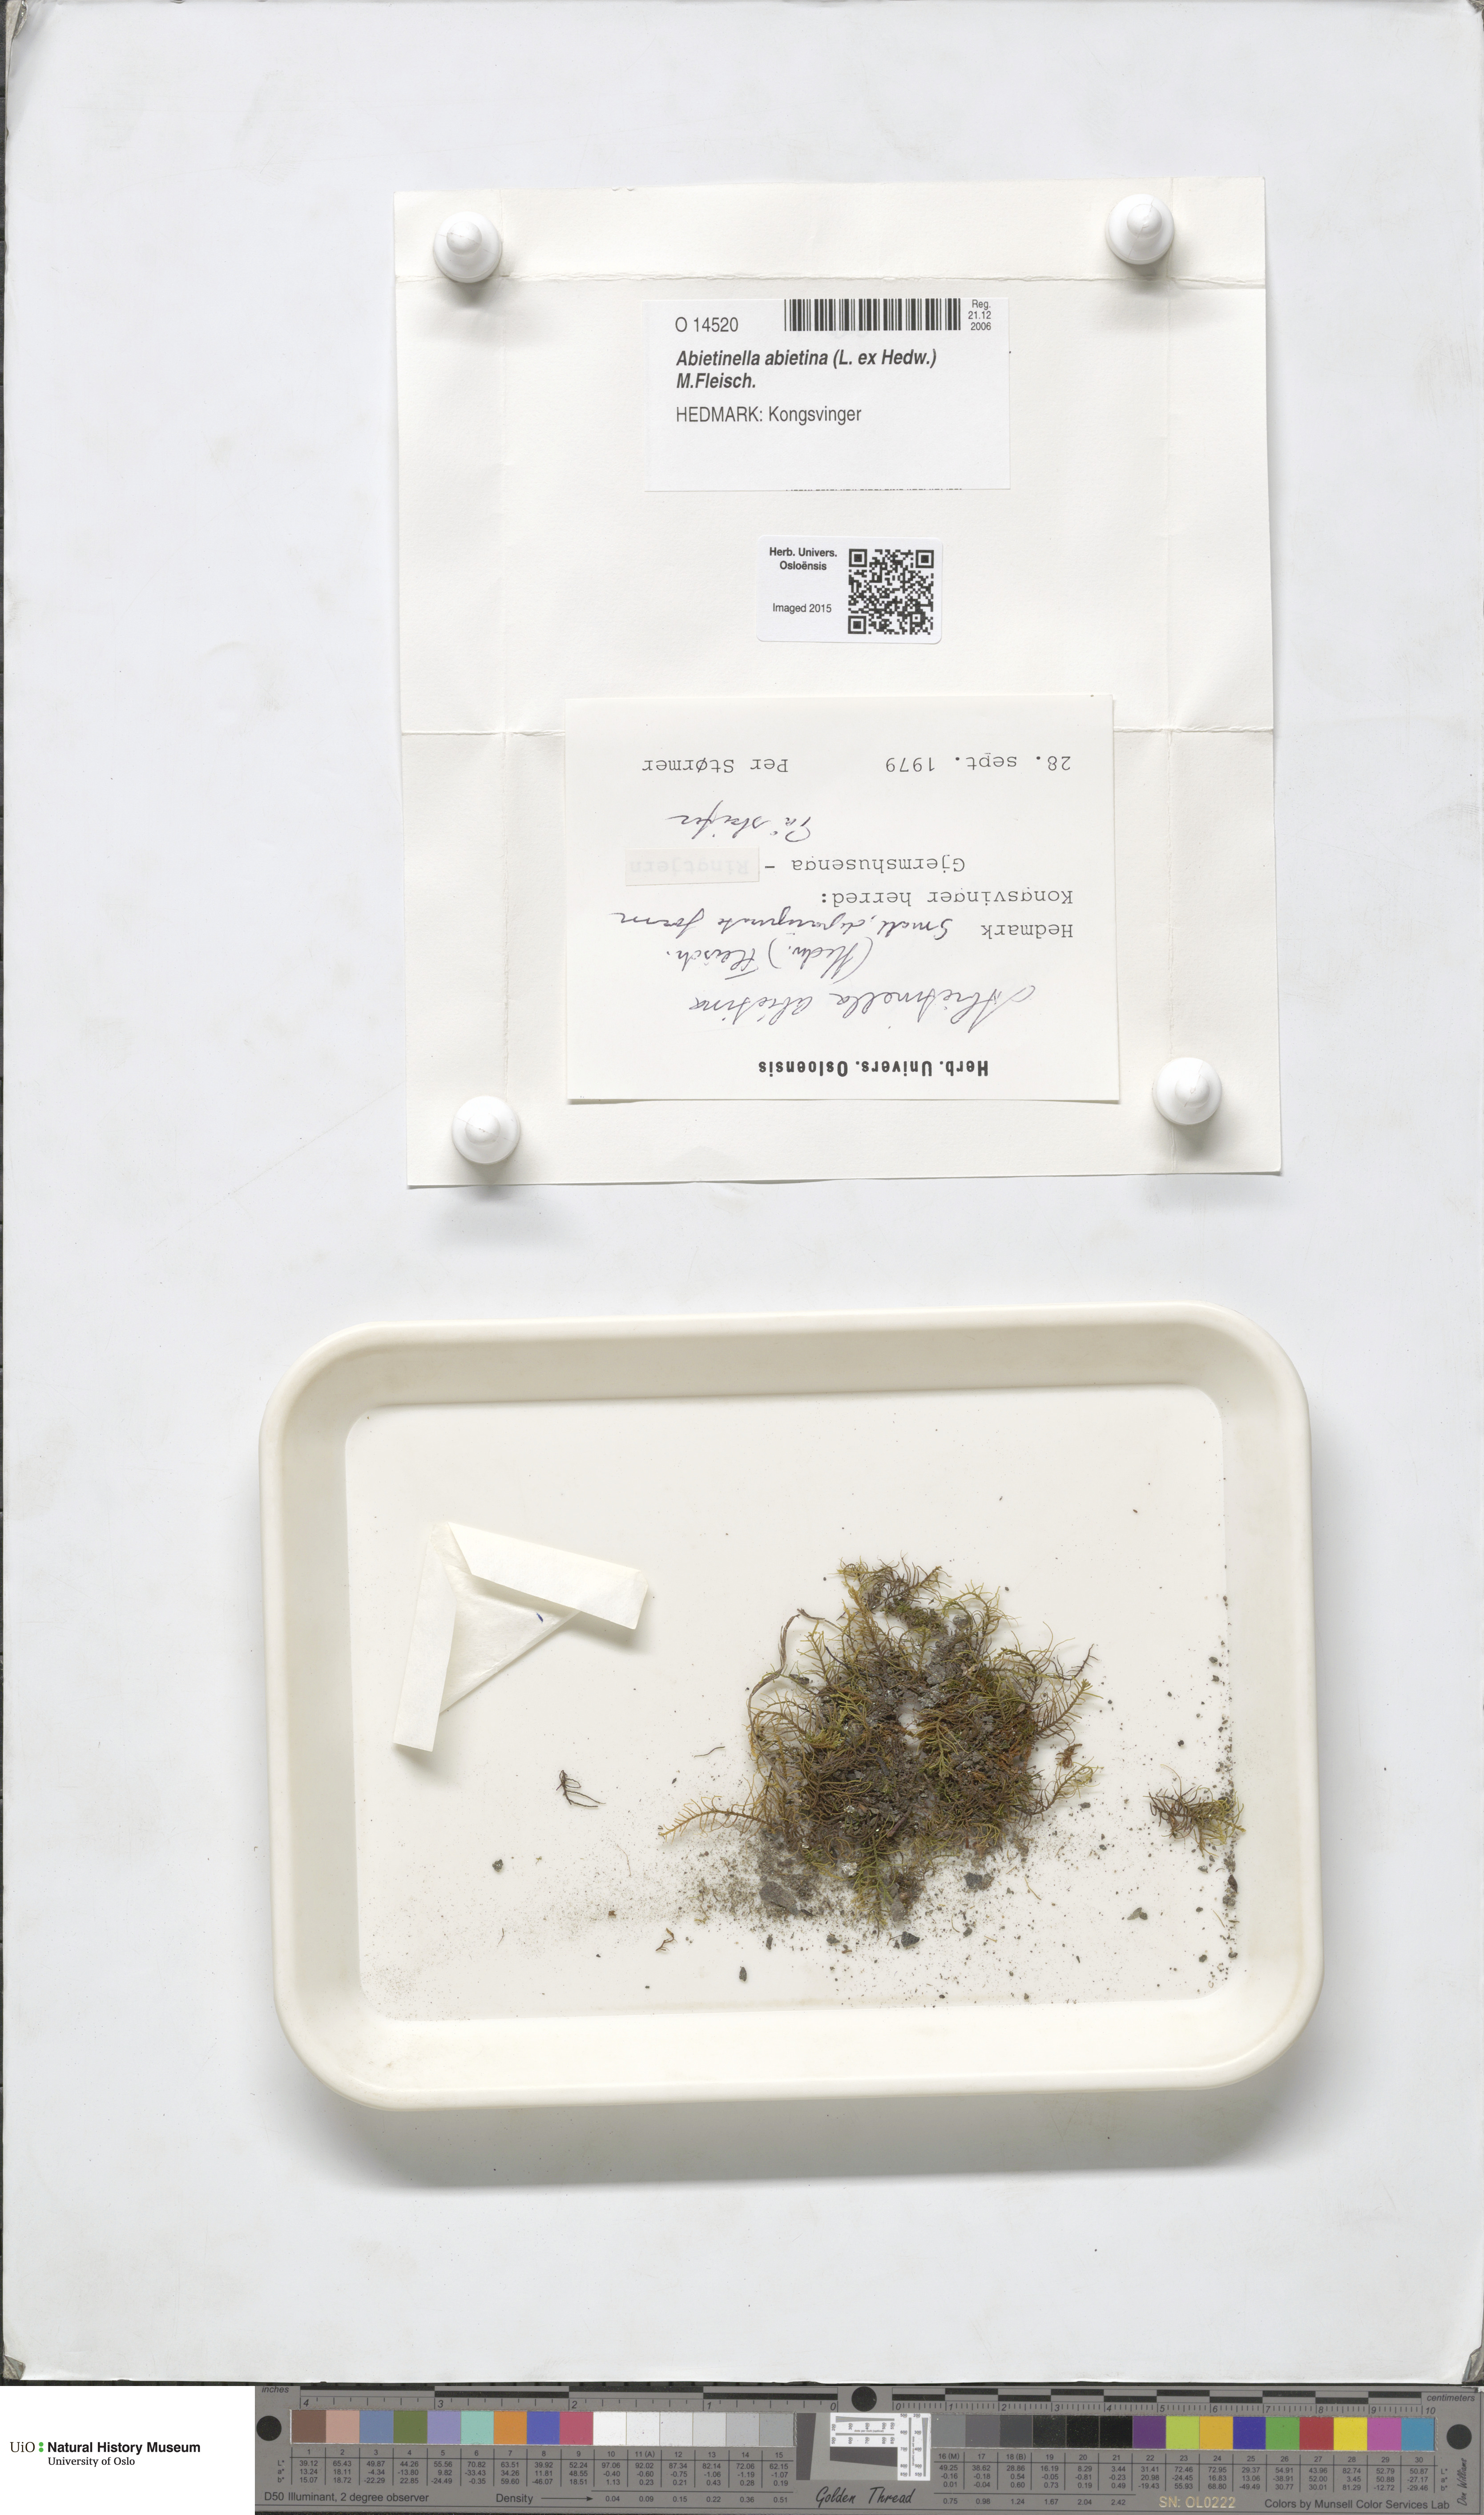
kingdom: Plantae
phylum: Bryophyta
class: Bryopsida
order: Hypnales
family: Thuidiaceae
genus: Abietinella
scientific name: Abietinella abietina
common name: Wiry fern moss
